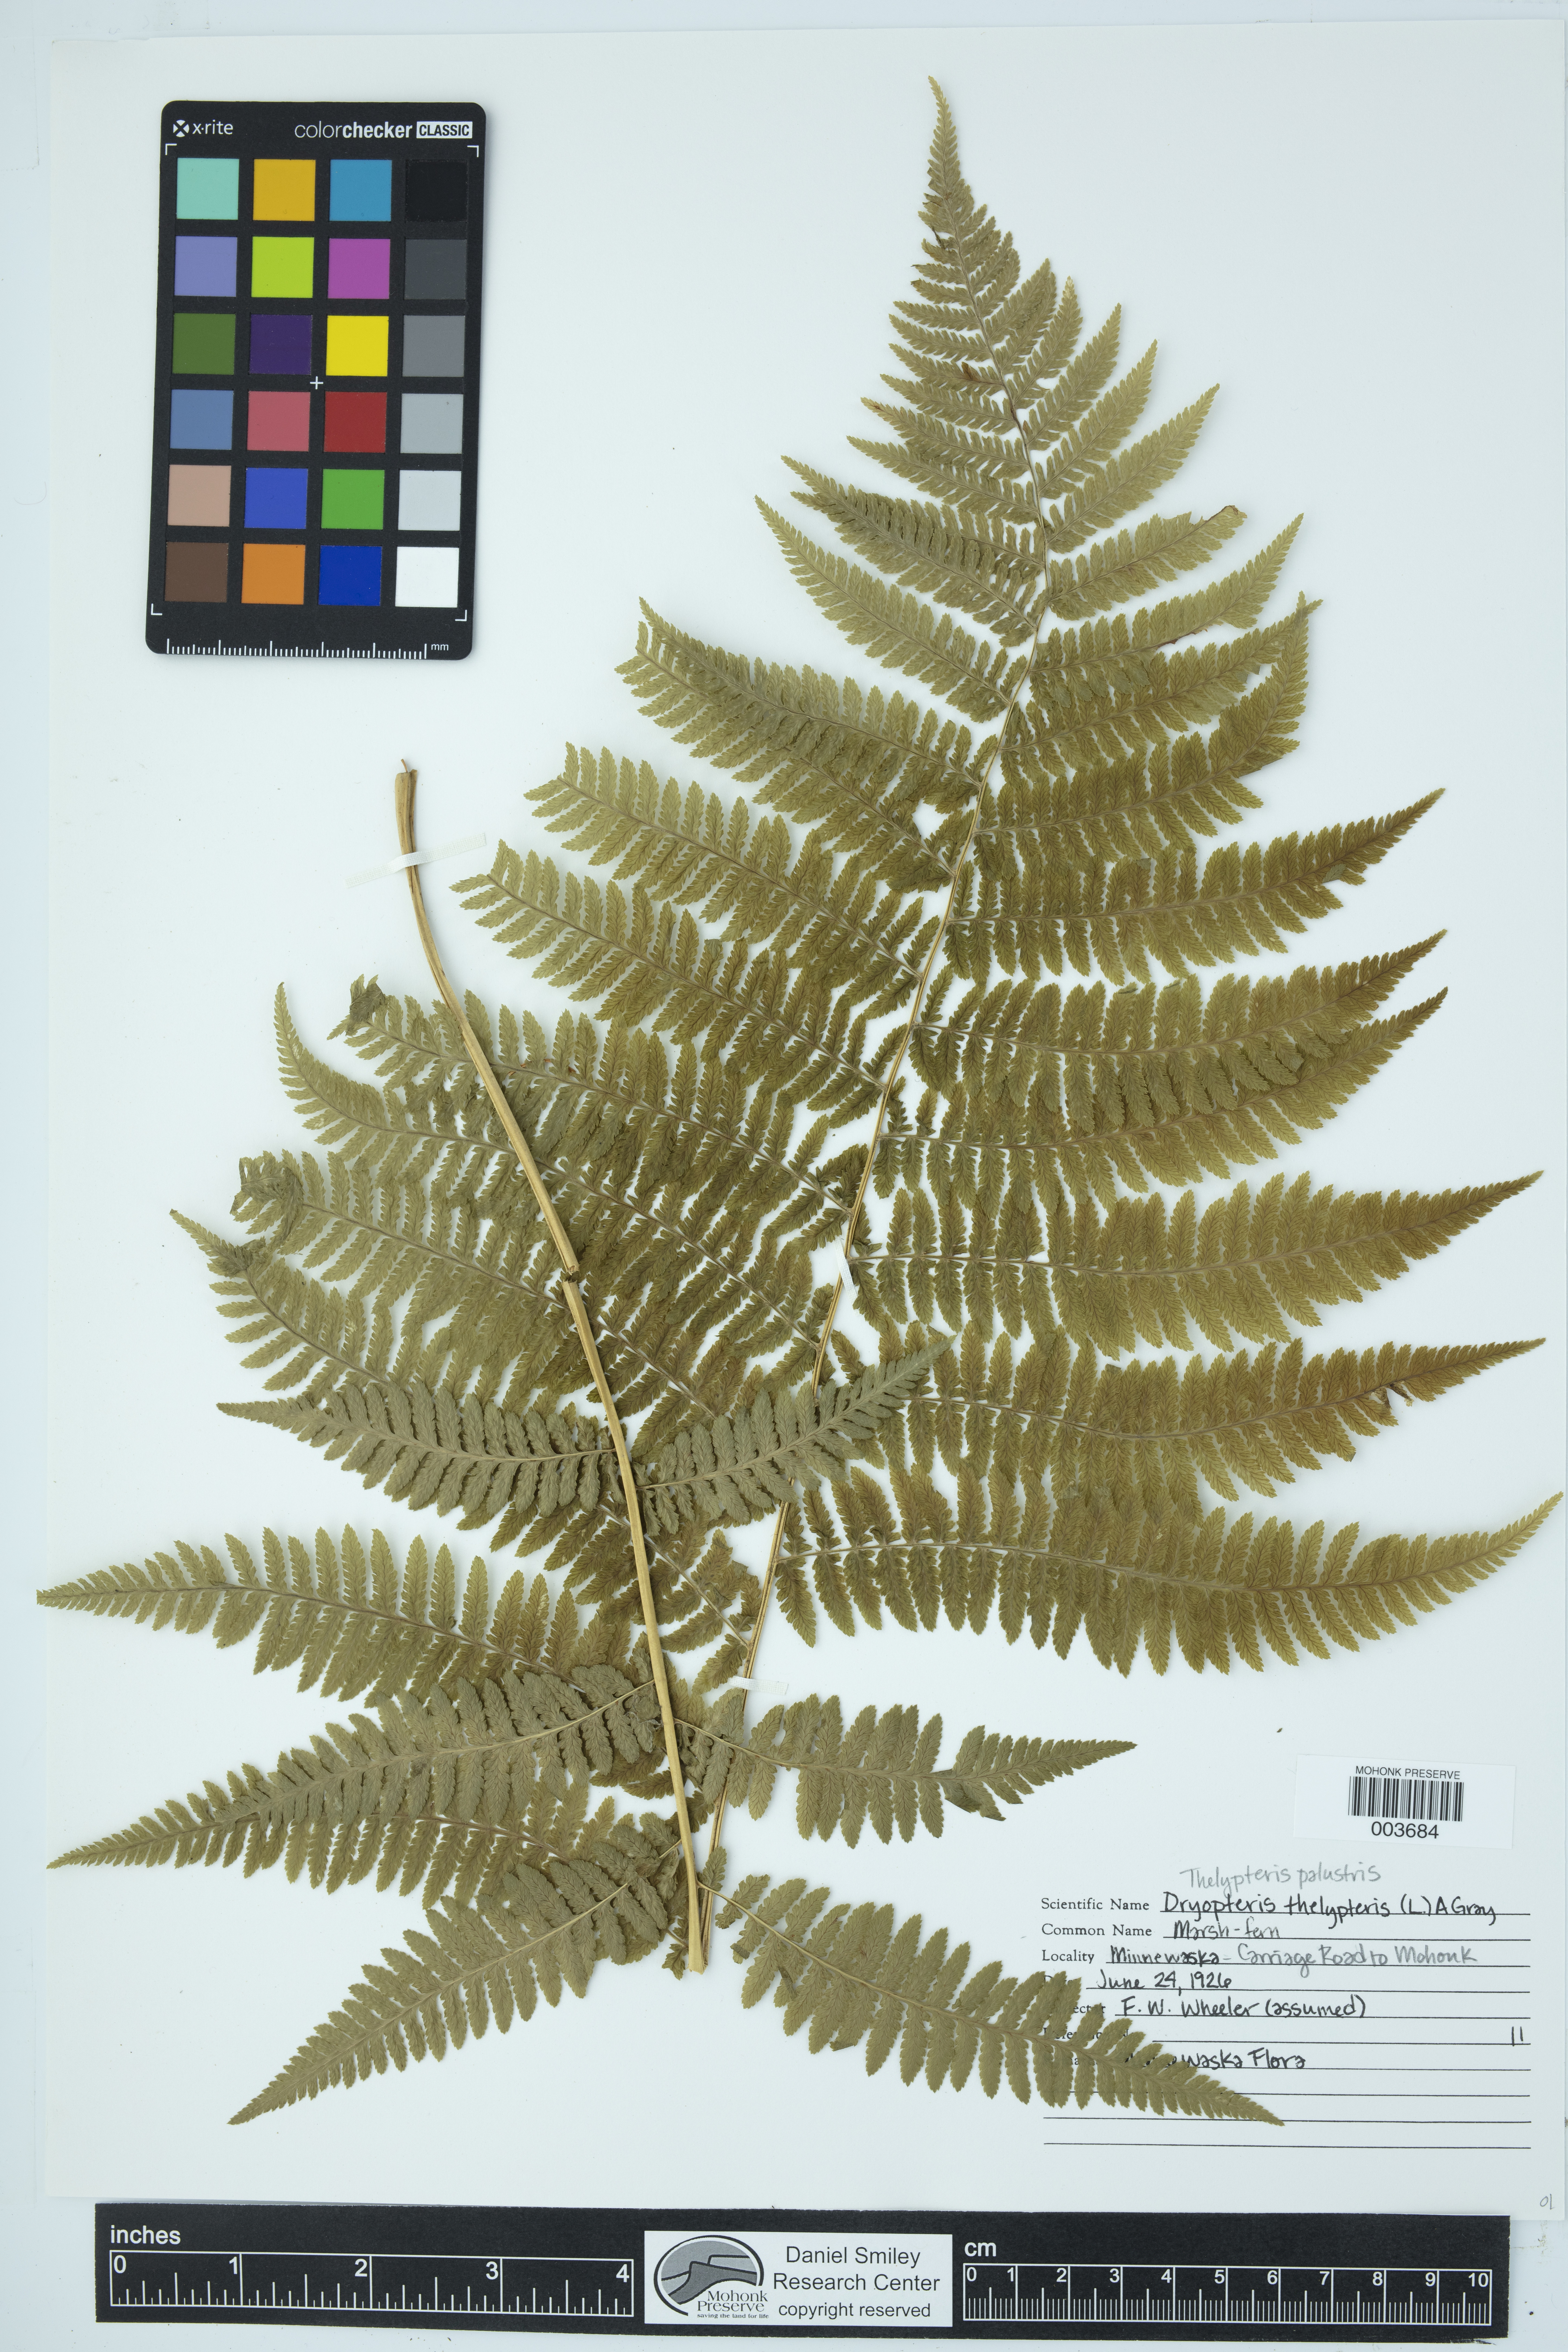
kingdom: Plantae
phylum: Tracheophyta
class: Polypodiopsida
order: Polypodiales
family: Thelypteridaceae
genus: Thelypteris
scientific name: Thelypteris confluens
